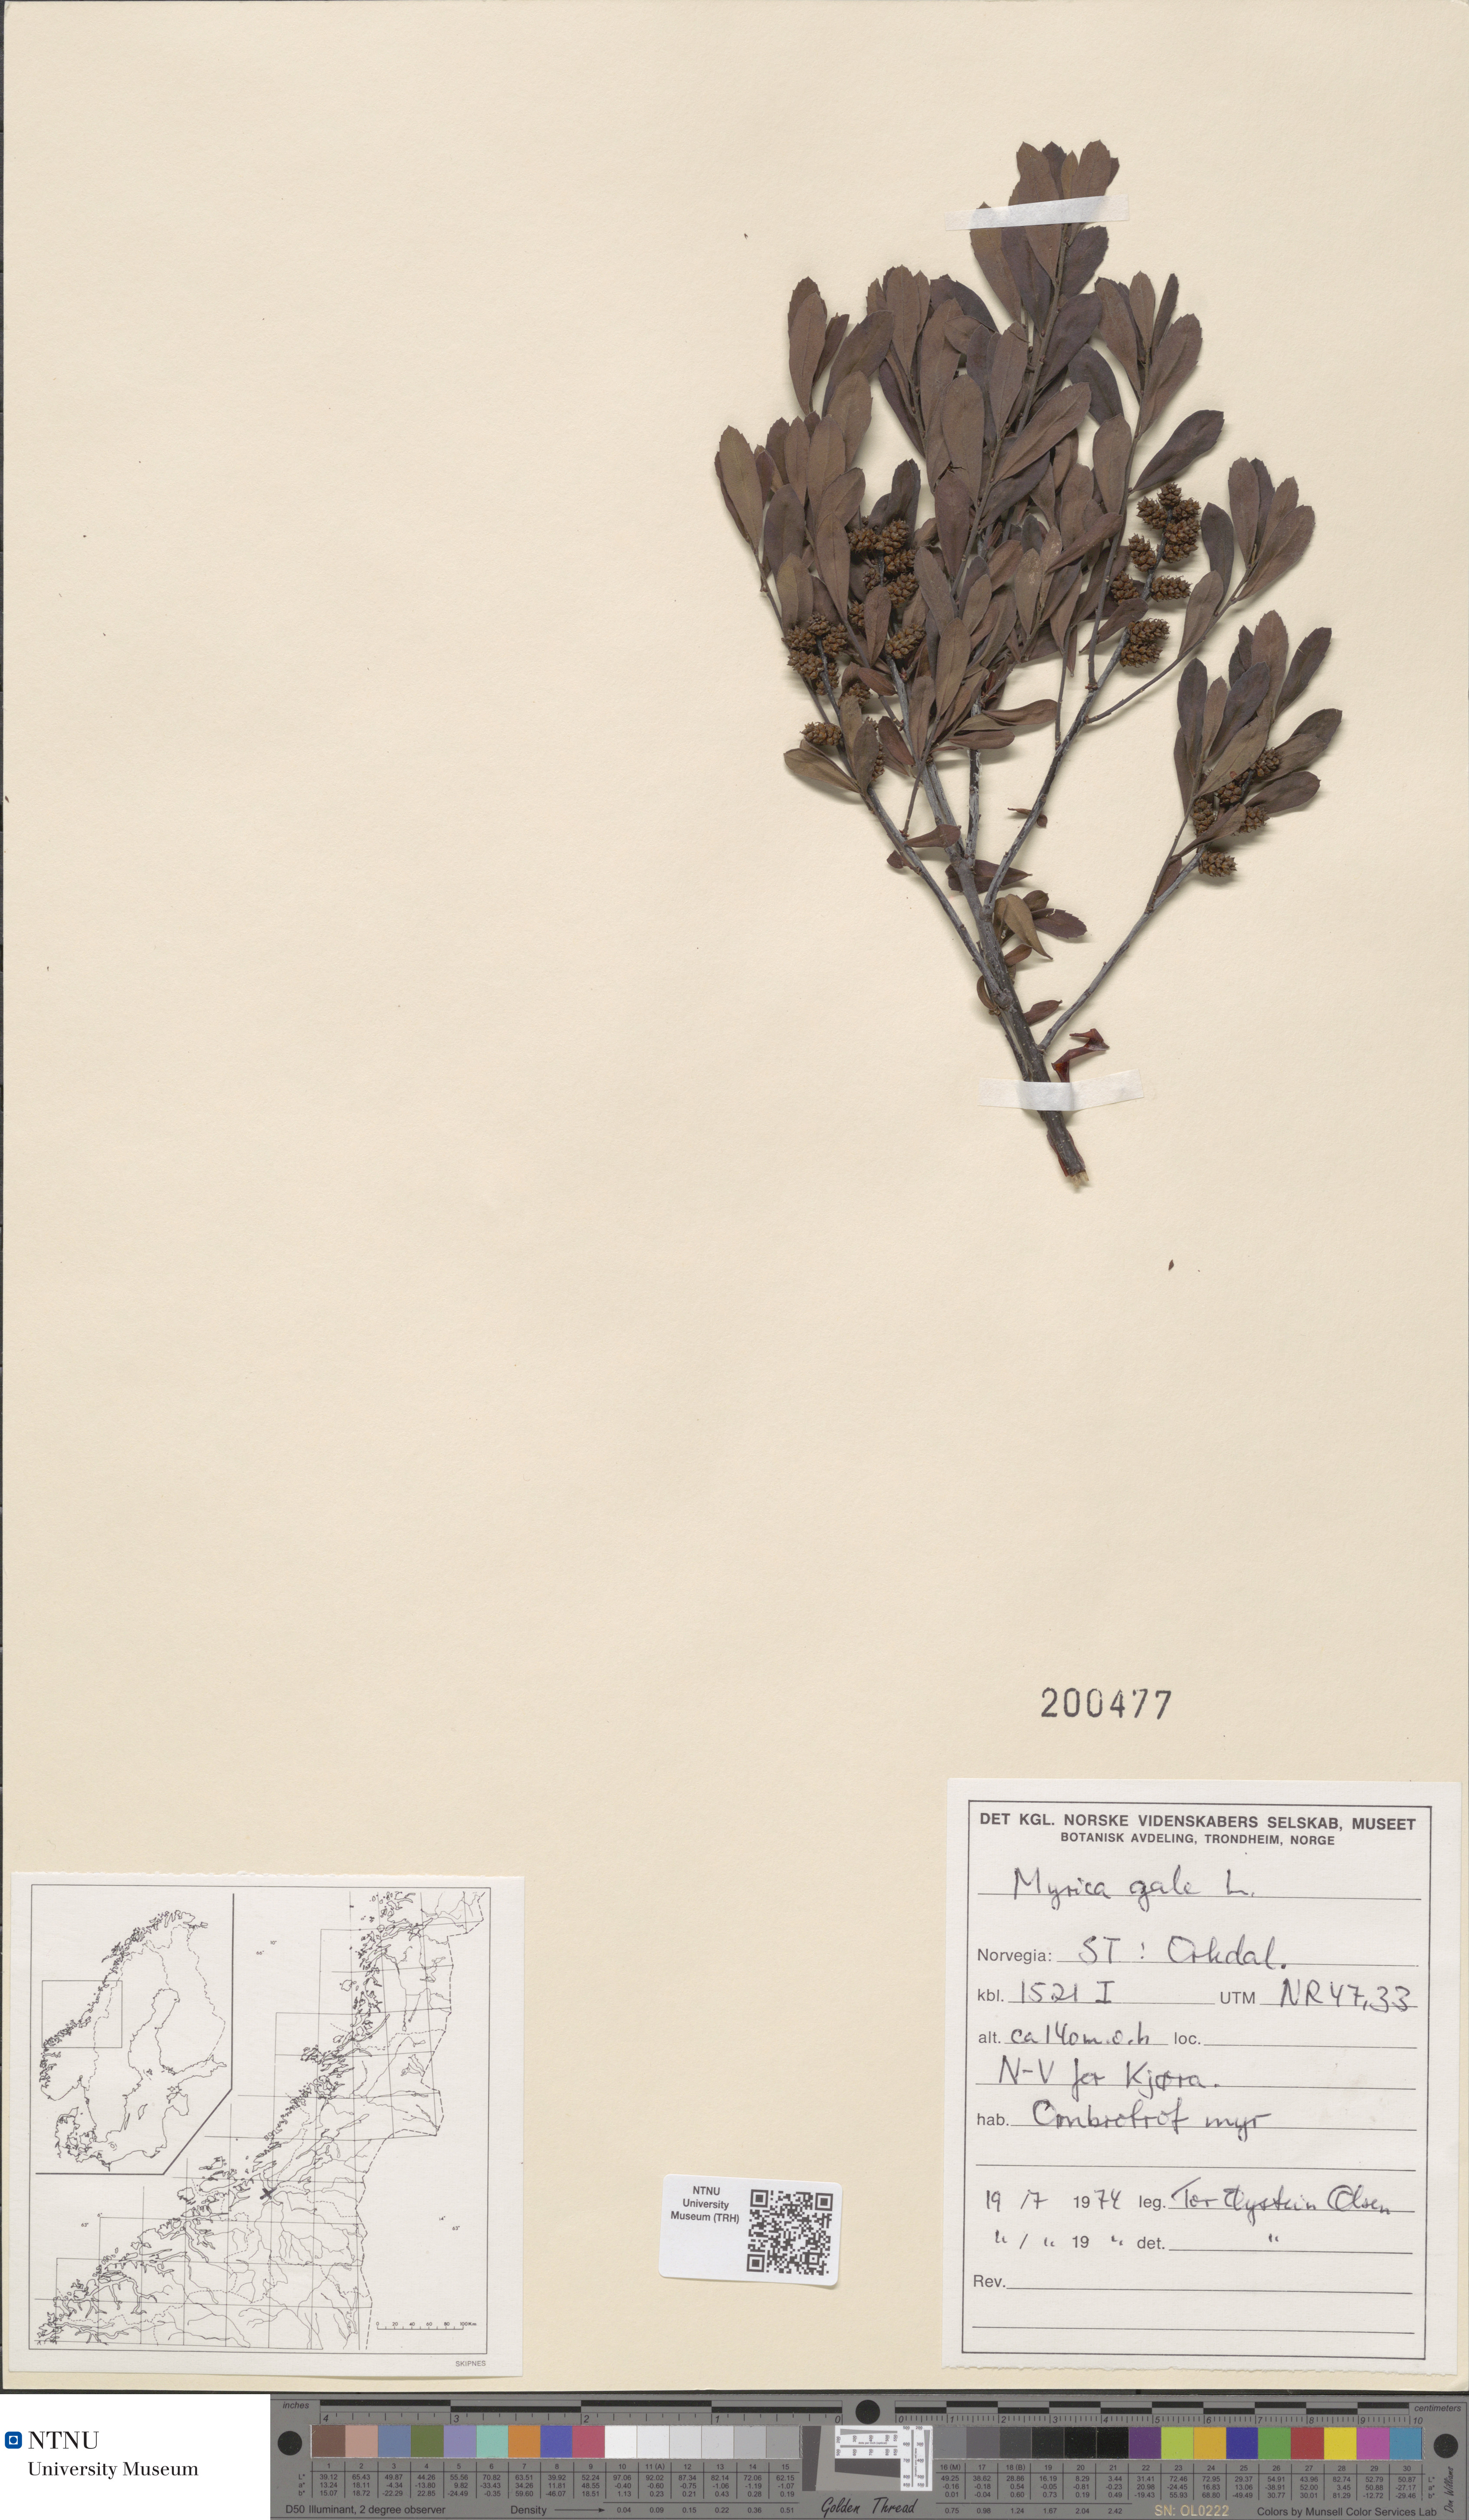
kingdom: Plantae
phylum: Tracheophyta
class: Magnoliopsida
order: Fagales
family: Myricaceae
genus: Myrica
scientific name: Myrica gale
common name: Sweet gale
